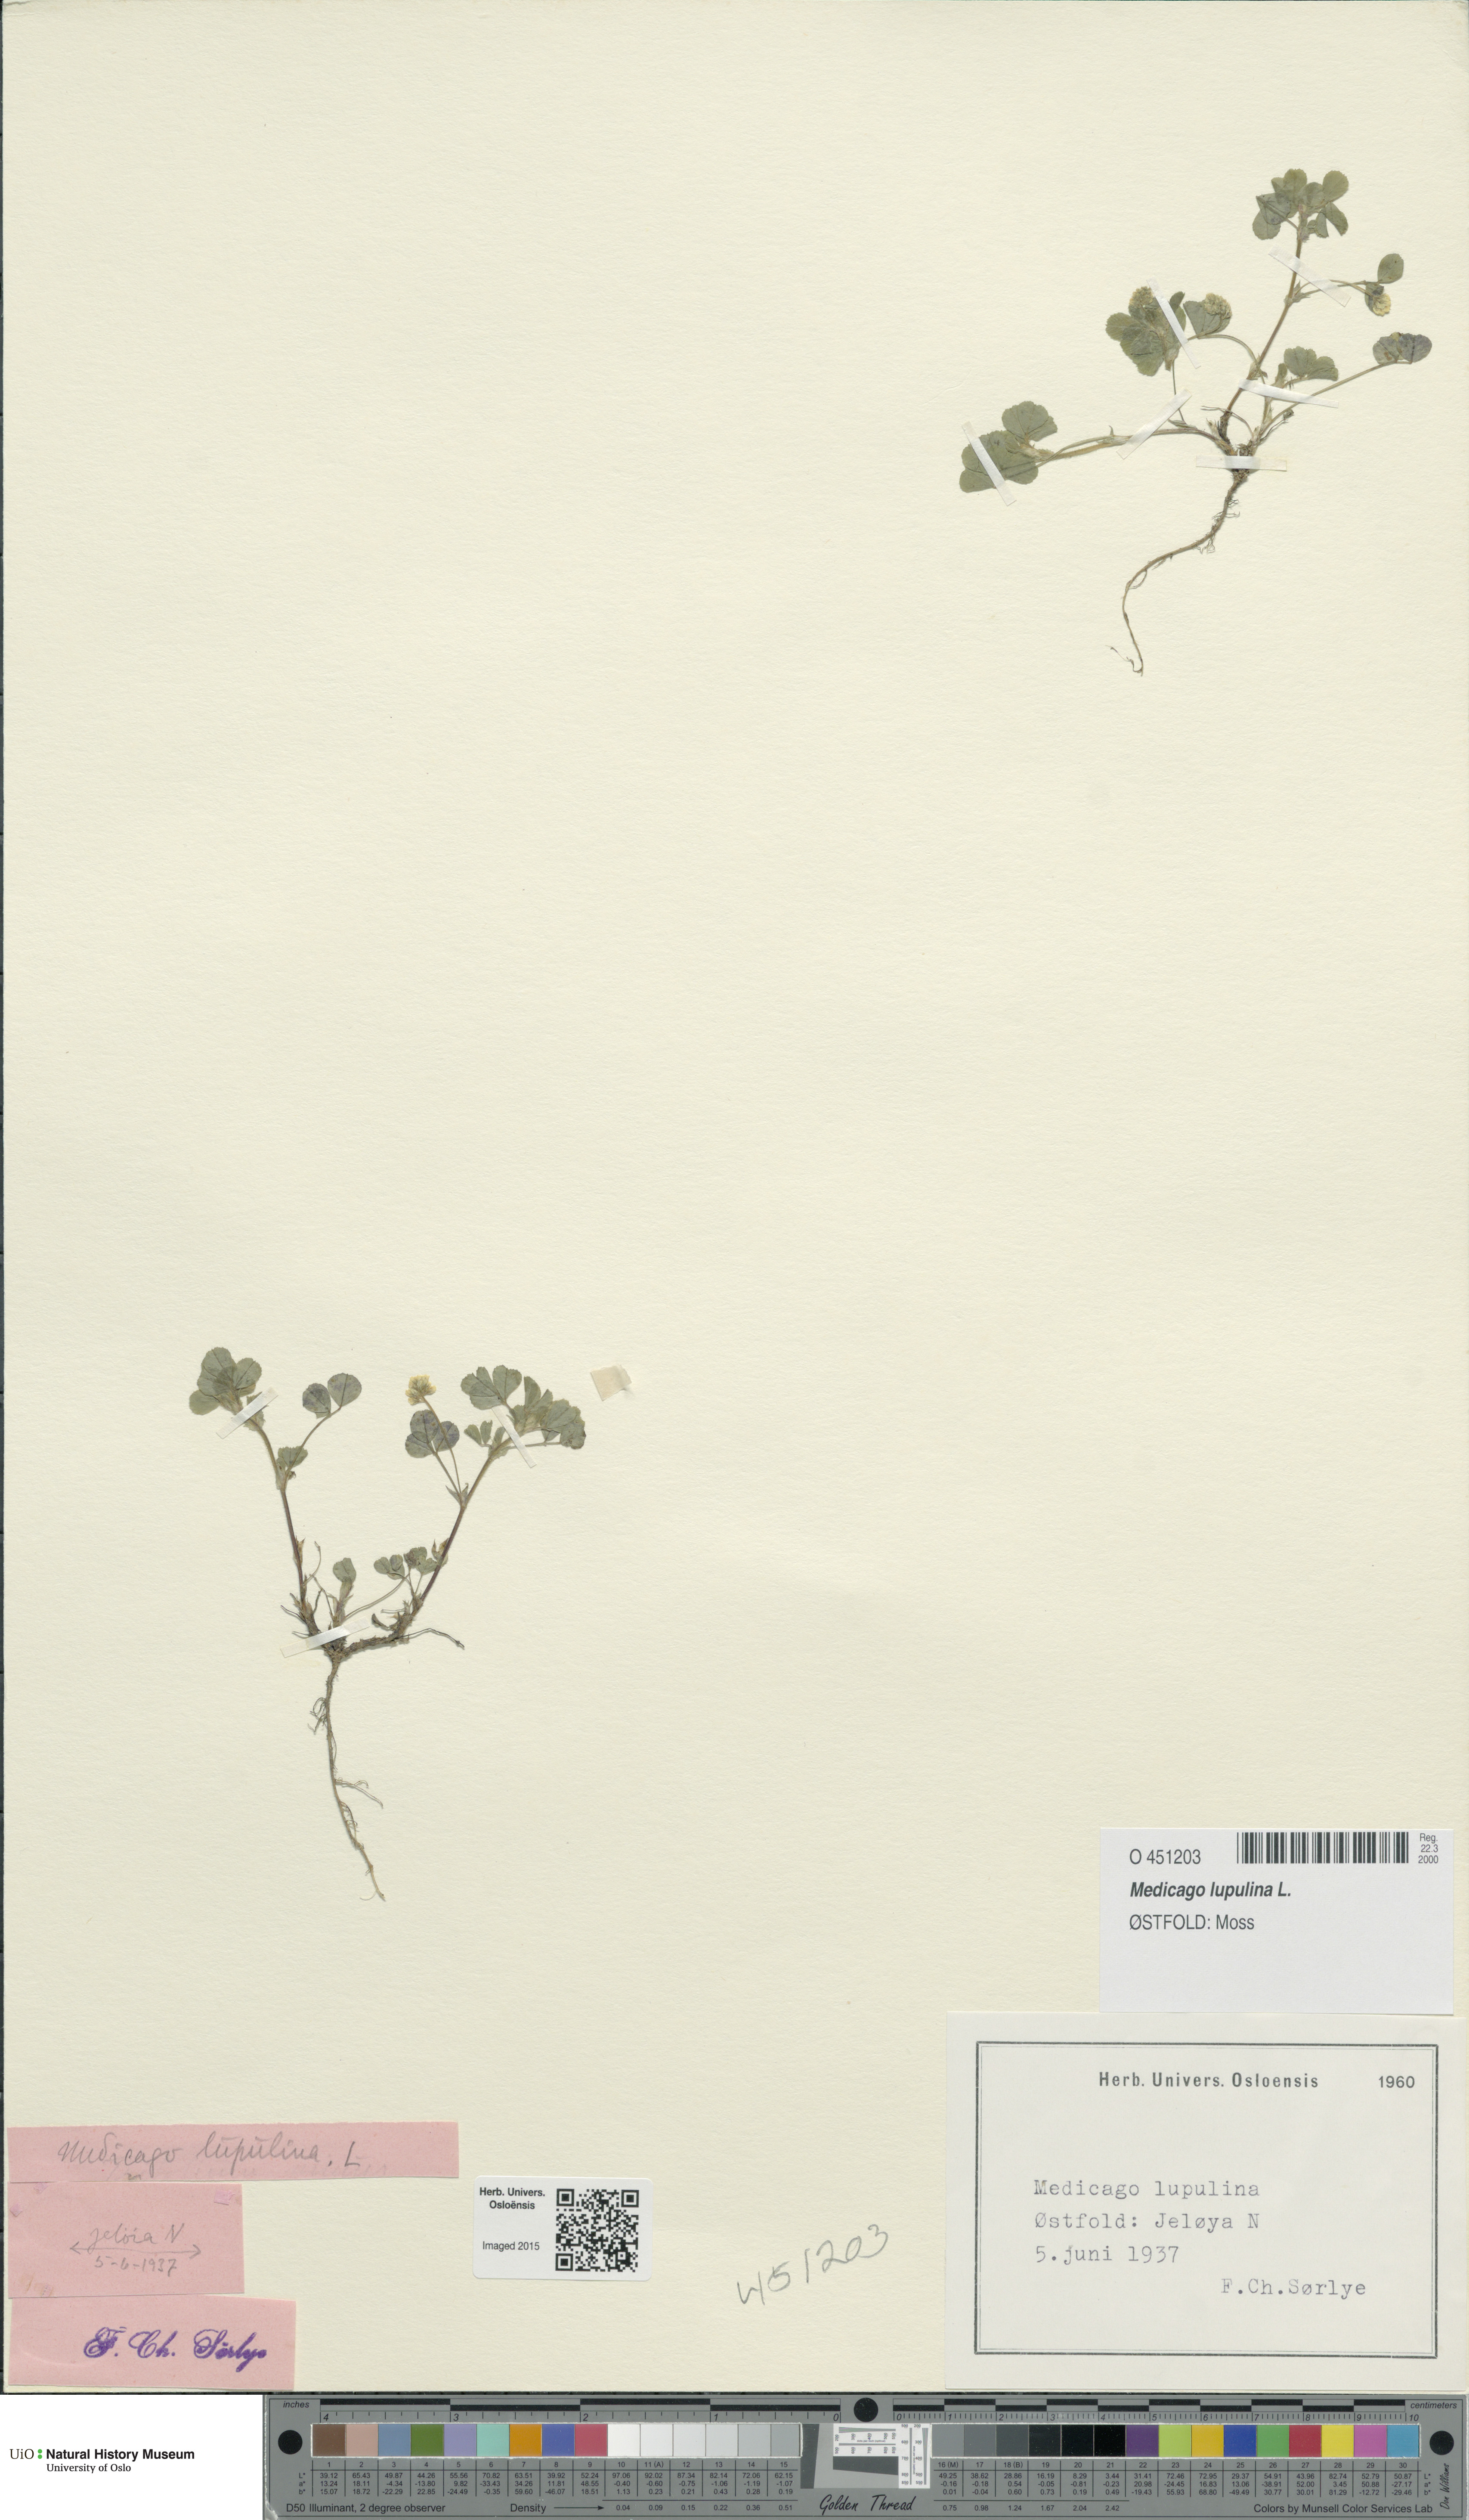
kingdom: Plantae
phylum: Tracheophyta
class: Magnoliopsida
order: Fabales
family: Fabaceae
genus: Medicago
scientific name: Medicago lupulina
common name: Black medick
